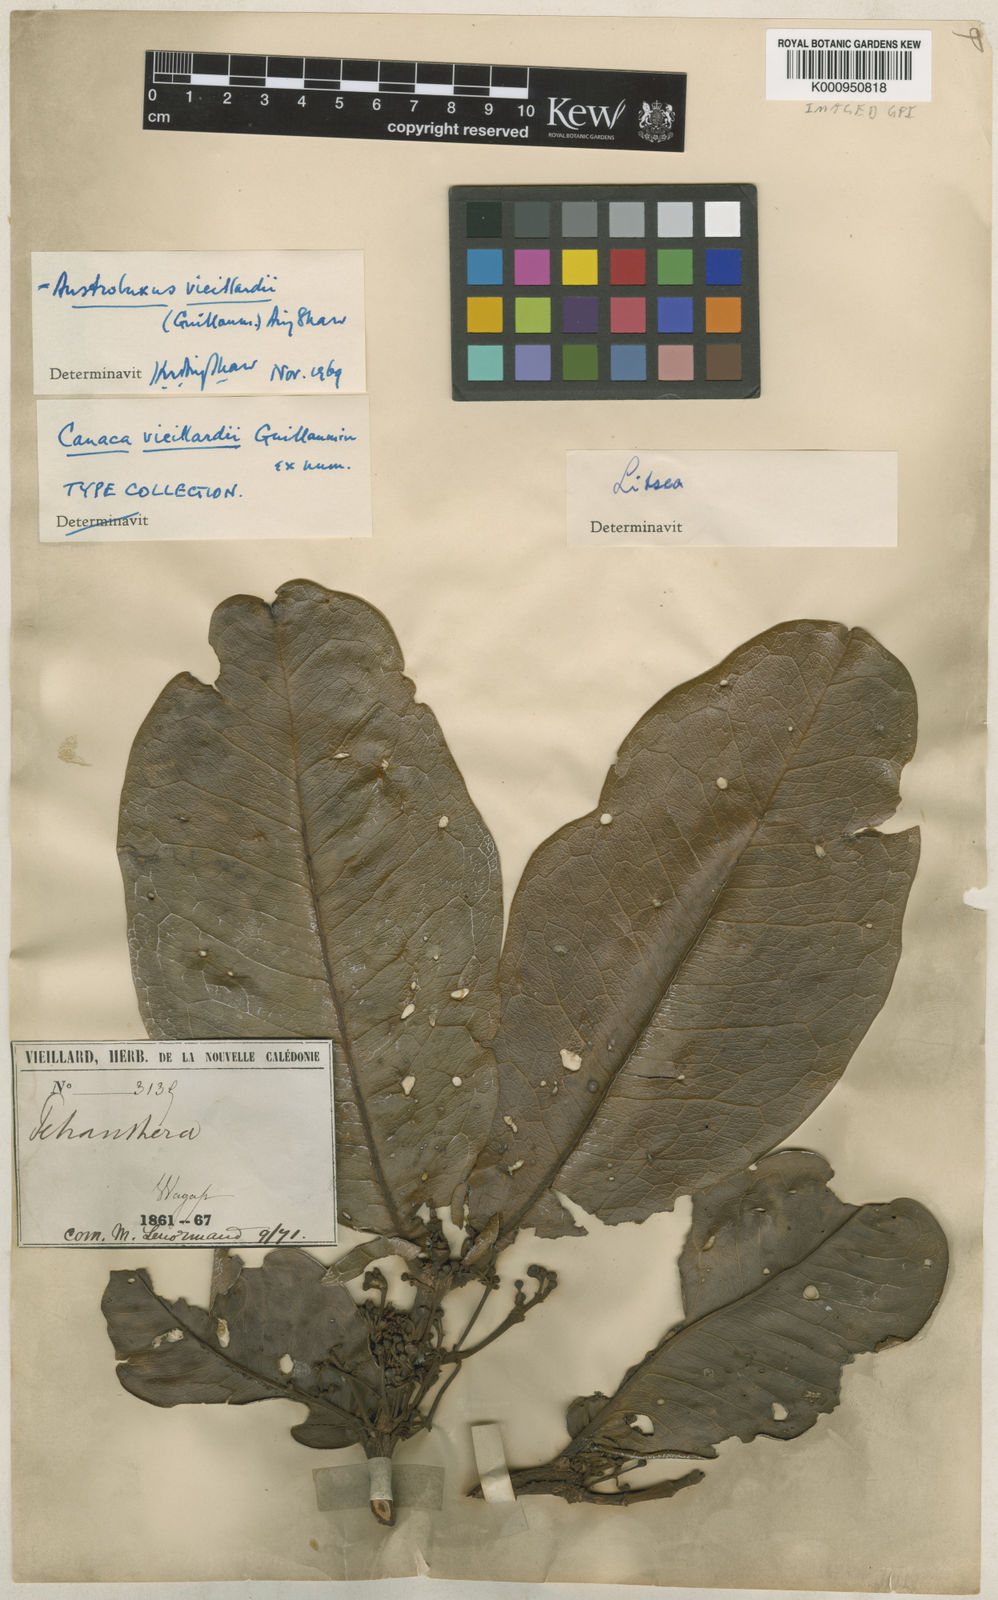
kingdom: Plantae
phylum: Tracheophyta
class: Magnoliopsida
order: Malpighiales
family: Picrodendraceae
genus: Austrobuxus
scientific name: Austrobuxus vieillardii
